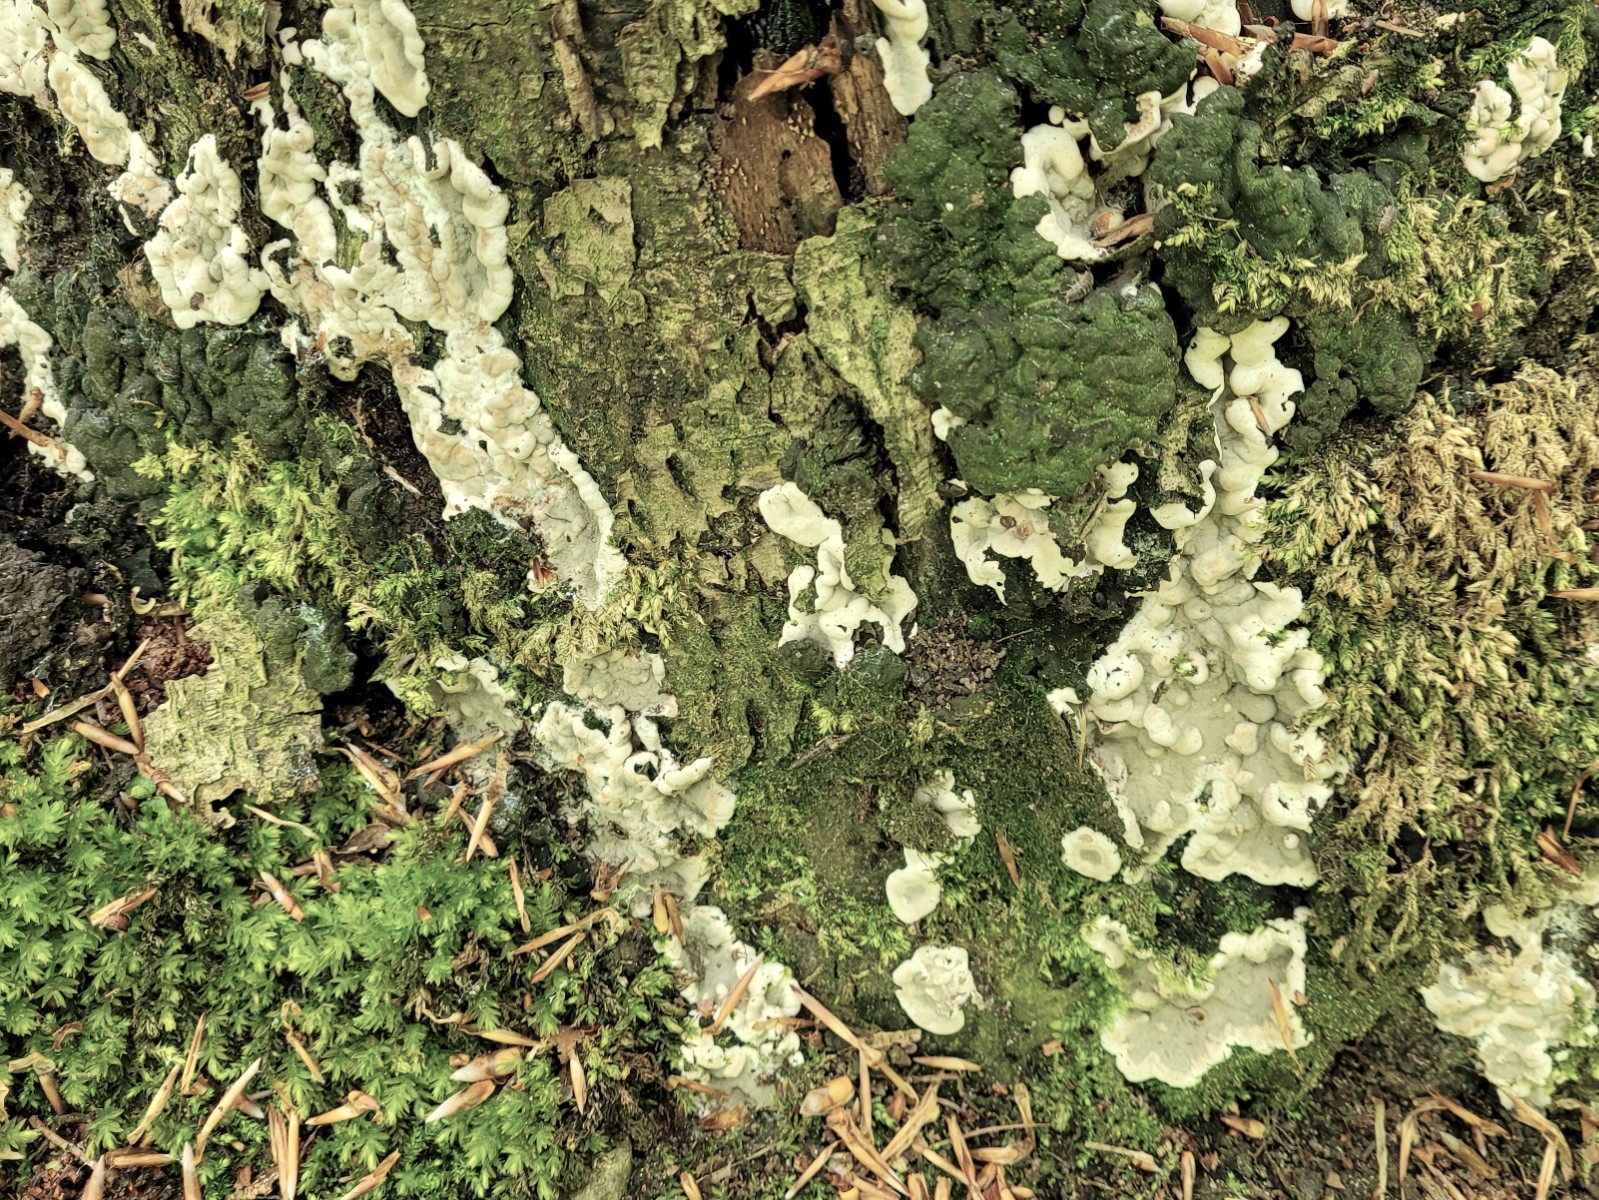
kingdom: Fungi
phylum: Ascomycota
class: Sordariomycetes
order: Xylariales
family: Xylariaceae
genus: Kretzschmaria
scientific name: Kretzschmaria deusta
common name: stor kulsvamp
